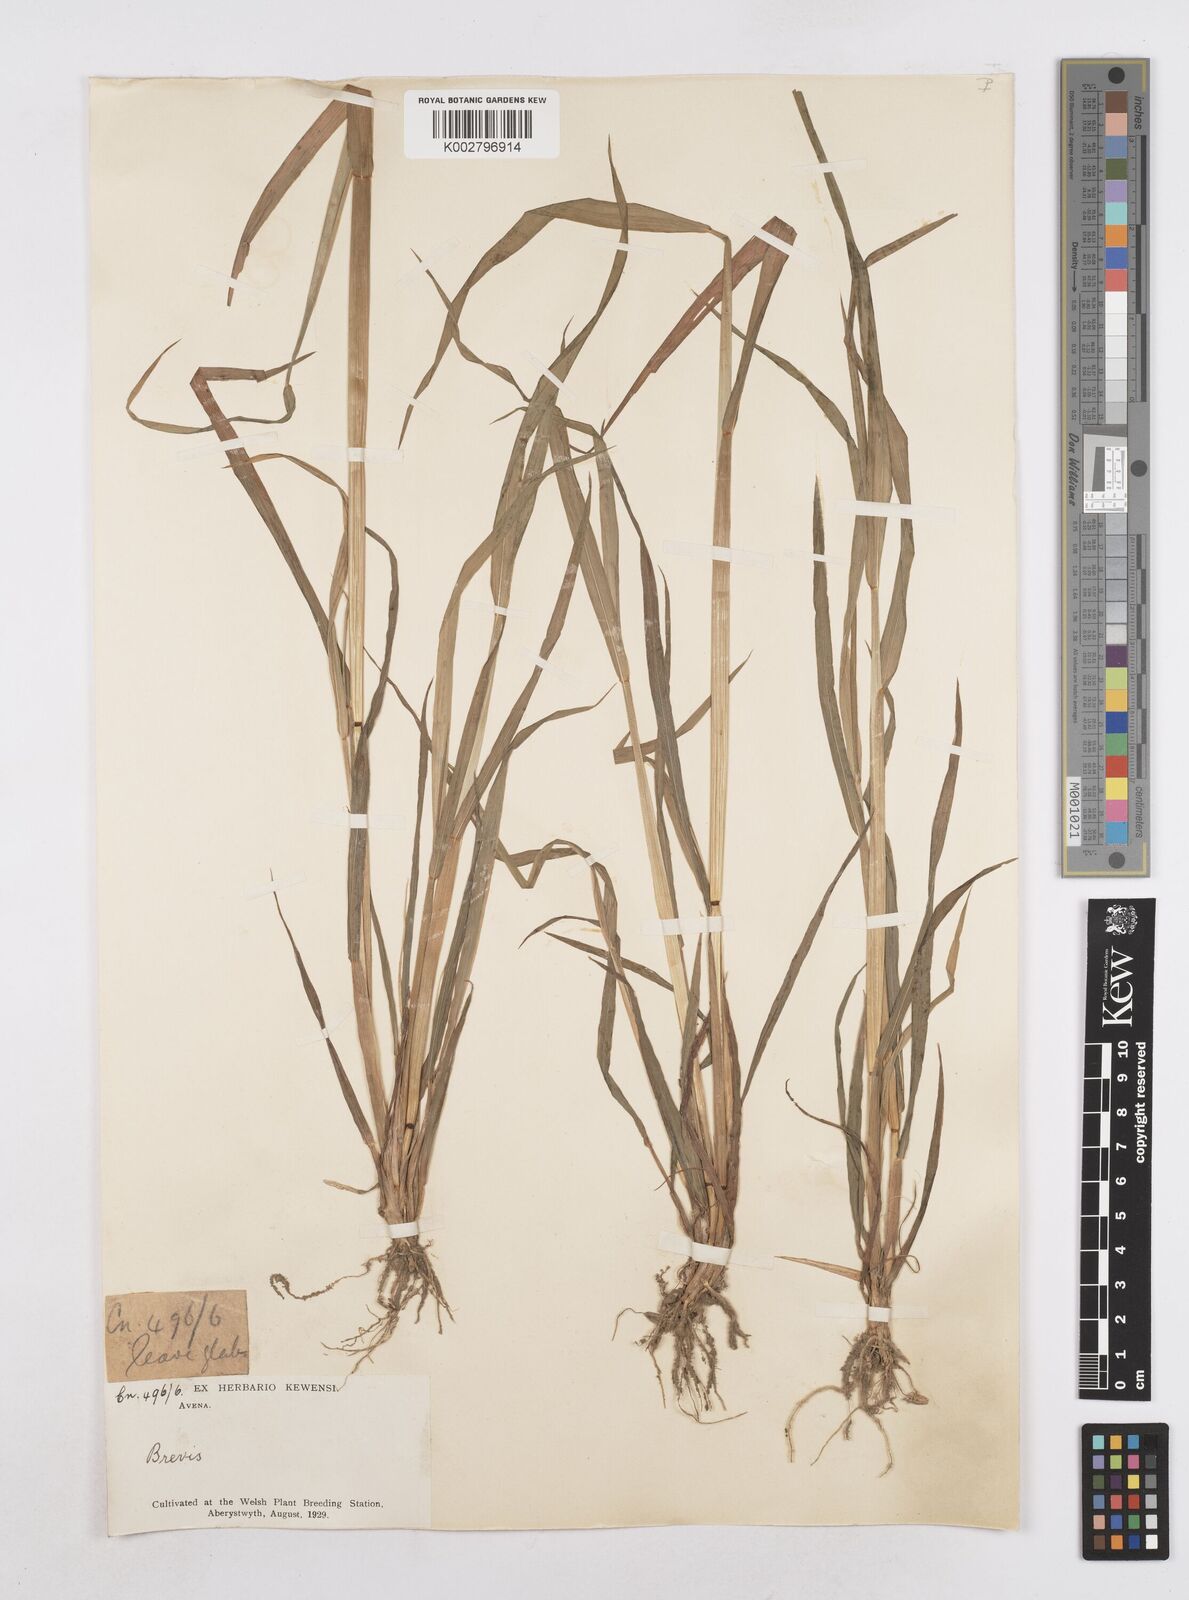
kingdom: Plantae
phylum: Tracheophyta
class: Liliopsida
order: Poales
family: Poaceae
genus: Avena
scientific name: Avena brevis
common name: Short oat
